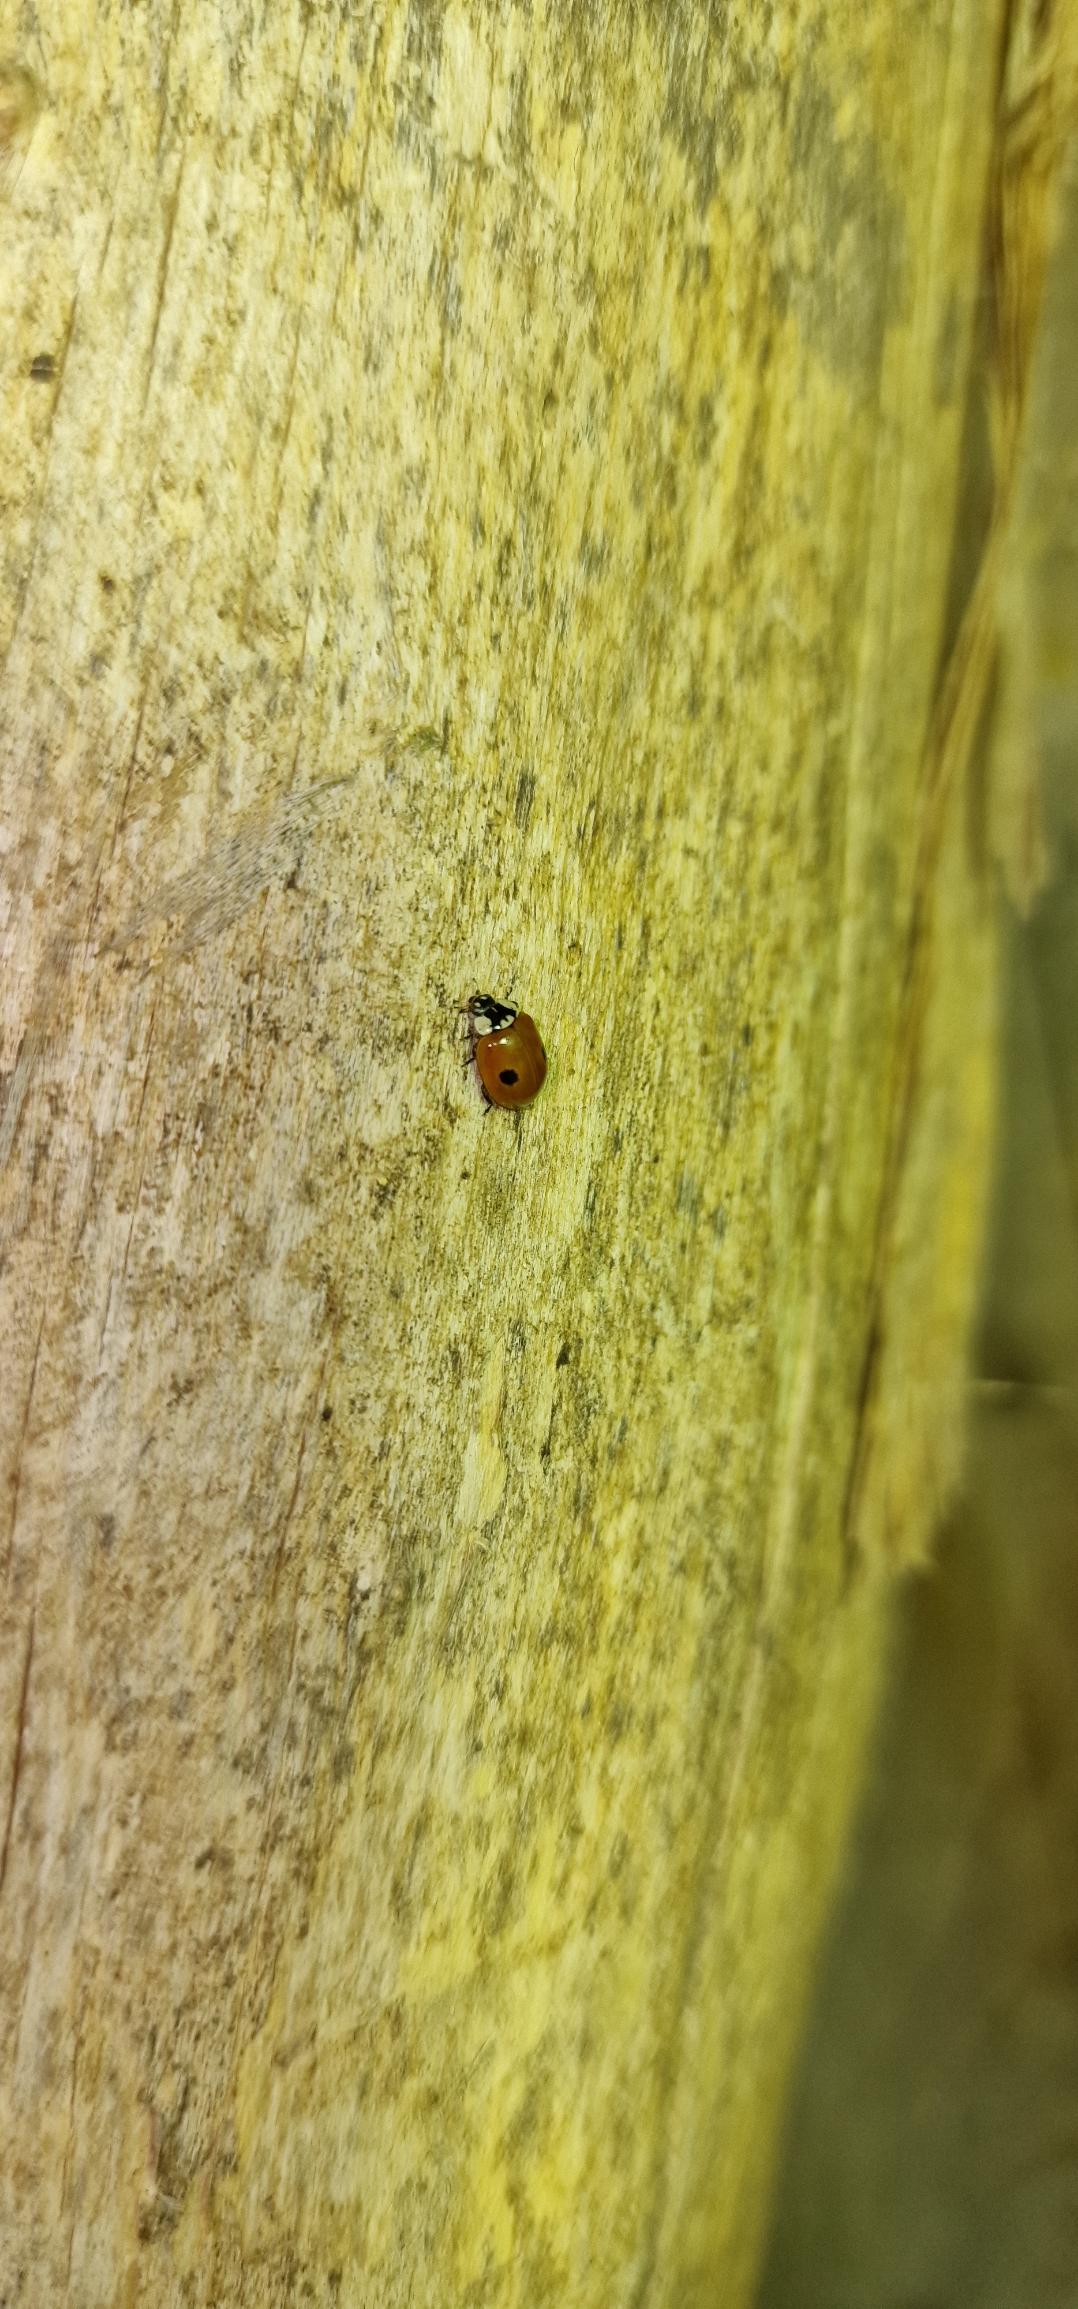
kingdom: Animalia
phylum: Arthropoda
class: Insecta
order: Coleoptera
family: Coccinellidae
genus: Adalia
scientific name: Adalia bipunctata
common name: Toplettet mariehøne
